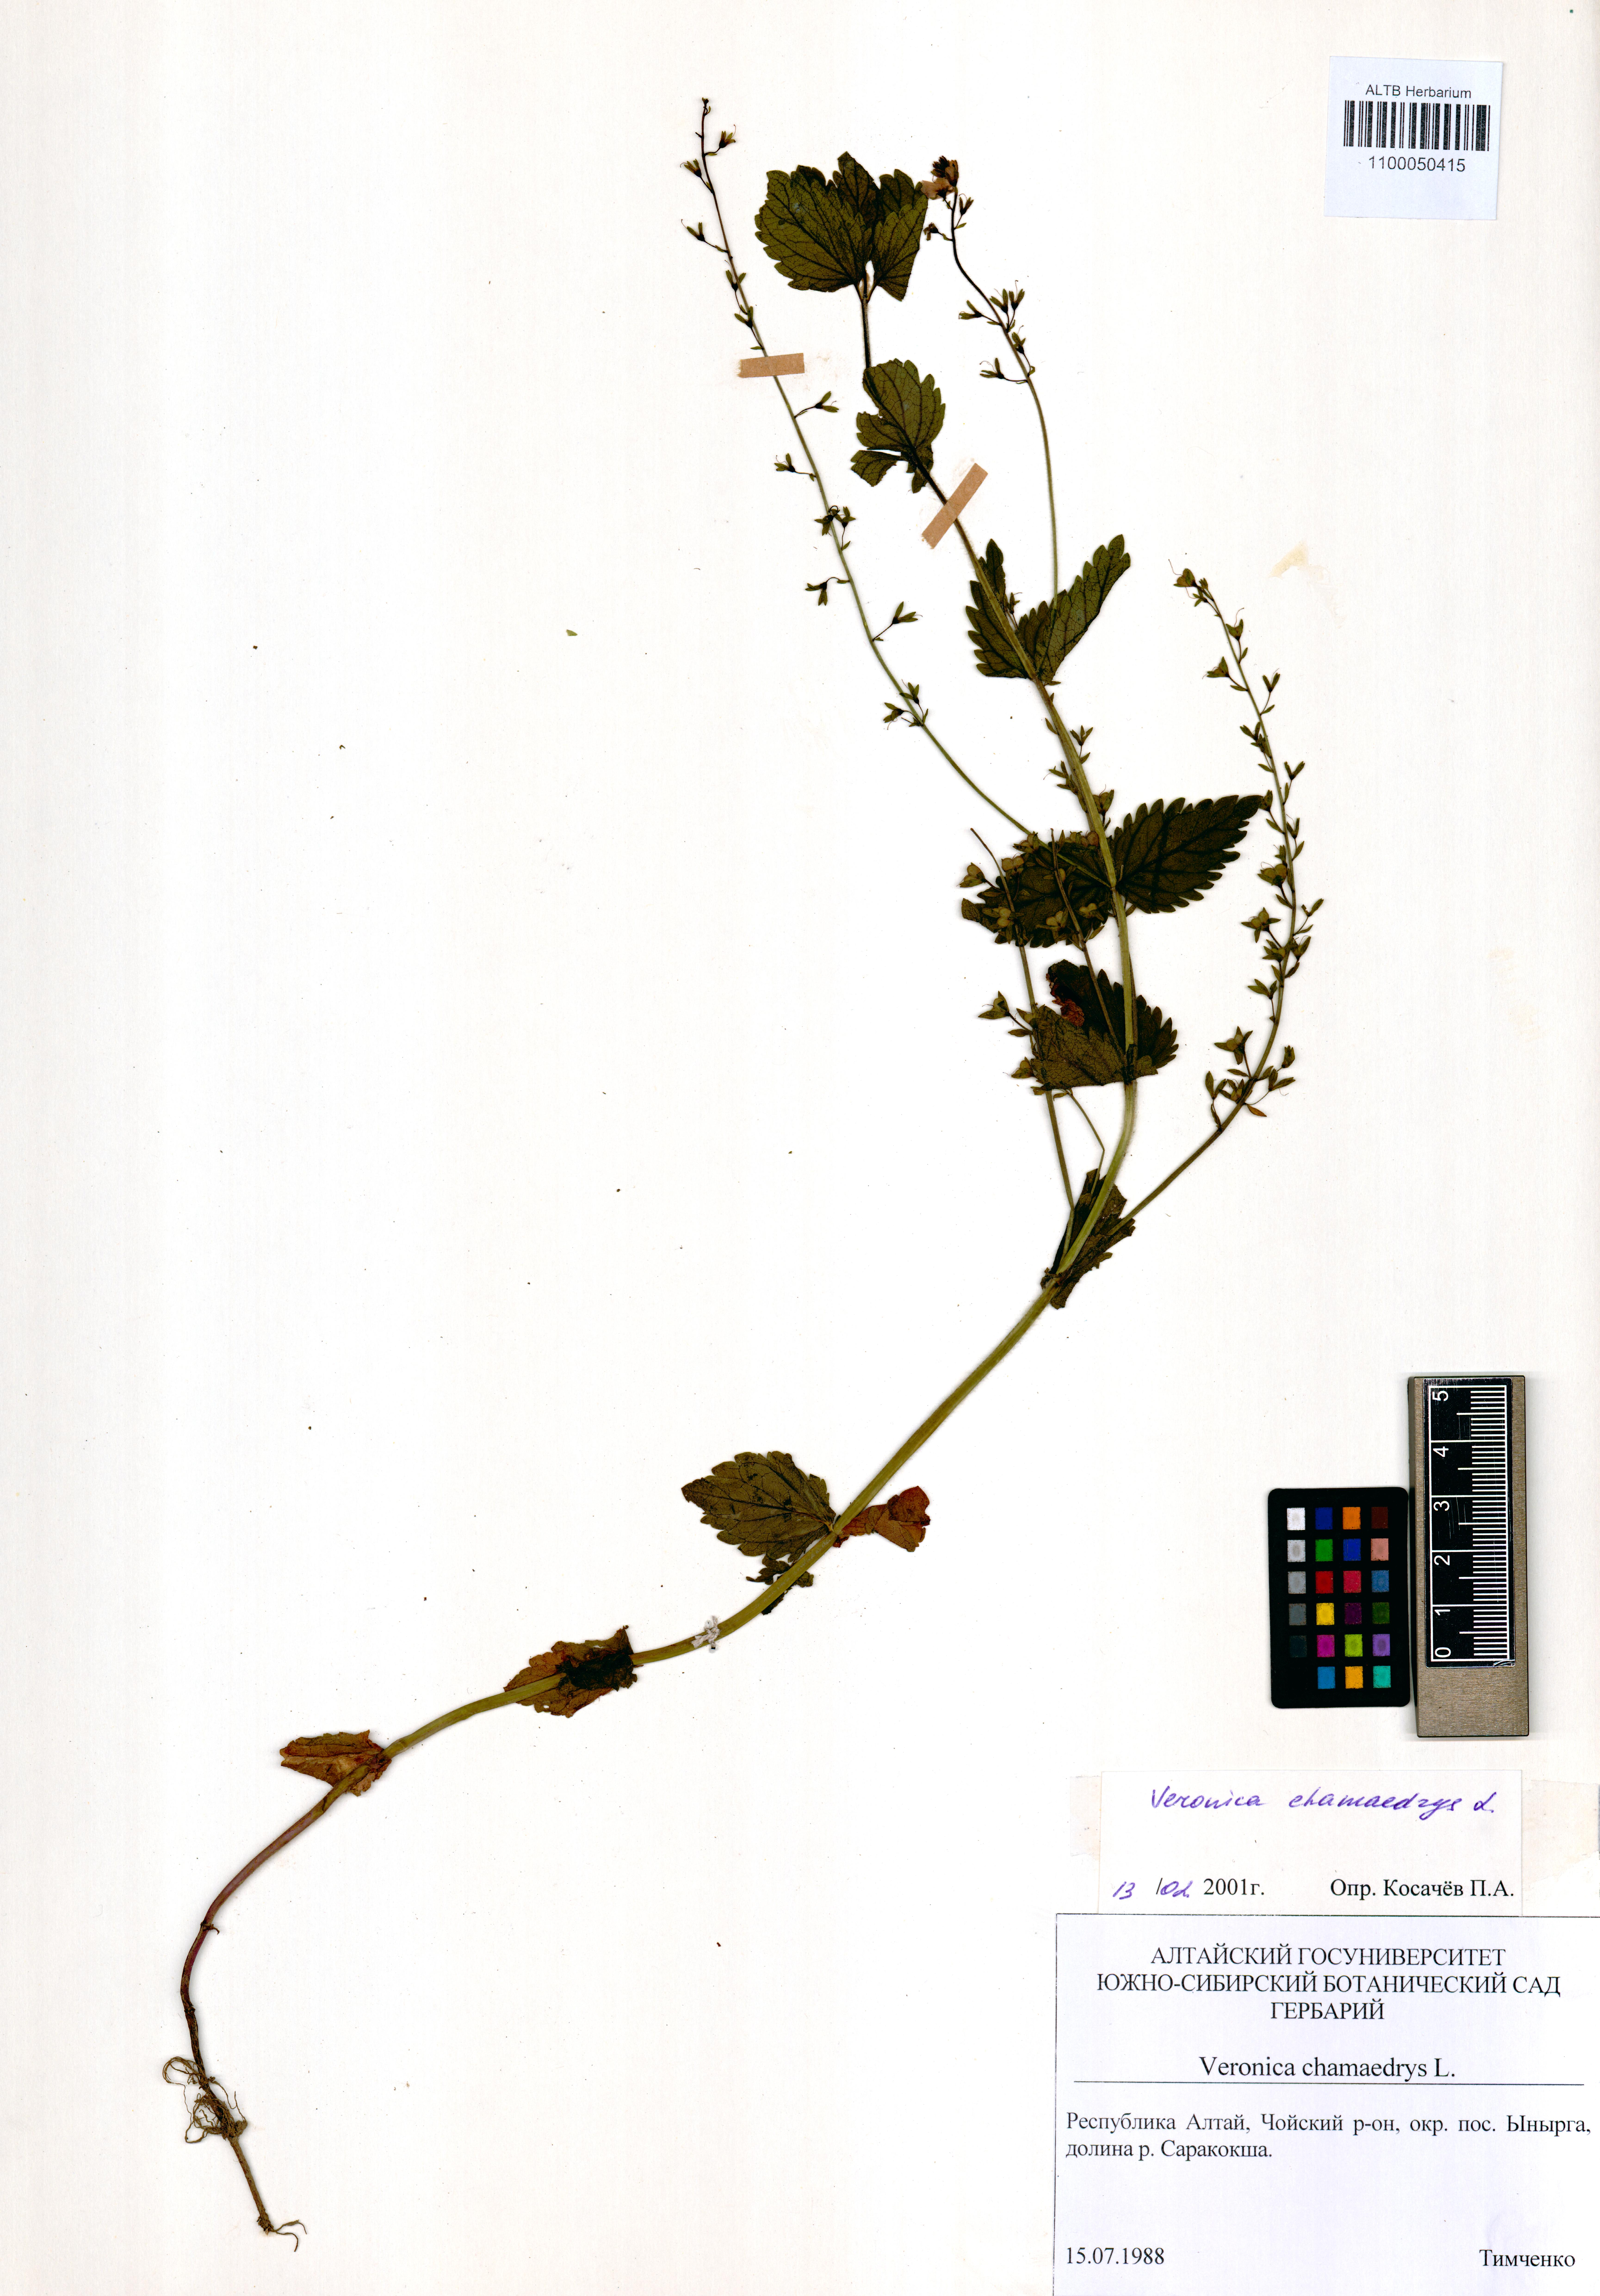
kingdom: Plantae
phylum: Tracheophyta
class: Magnoliopsida
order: Lamiales
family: Plantaginaceae
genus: Veronica
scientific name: Veronica chamaedrys
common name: Germander speedwell
